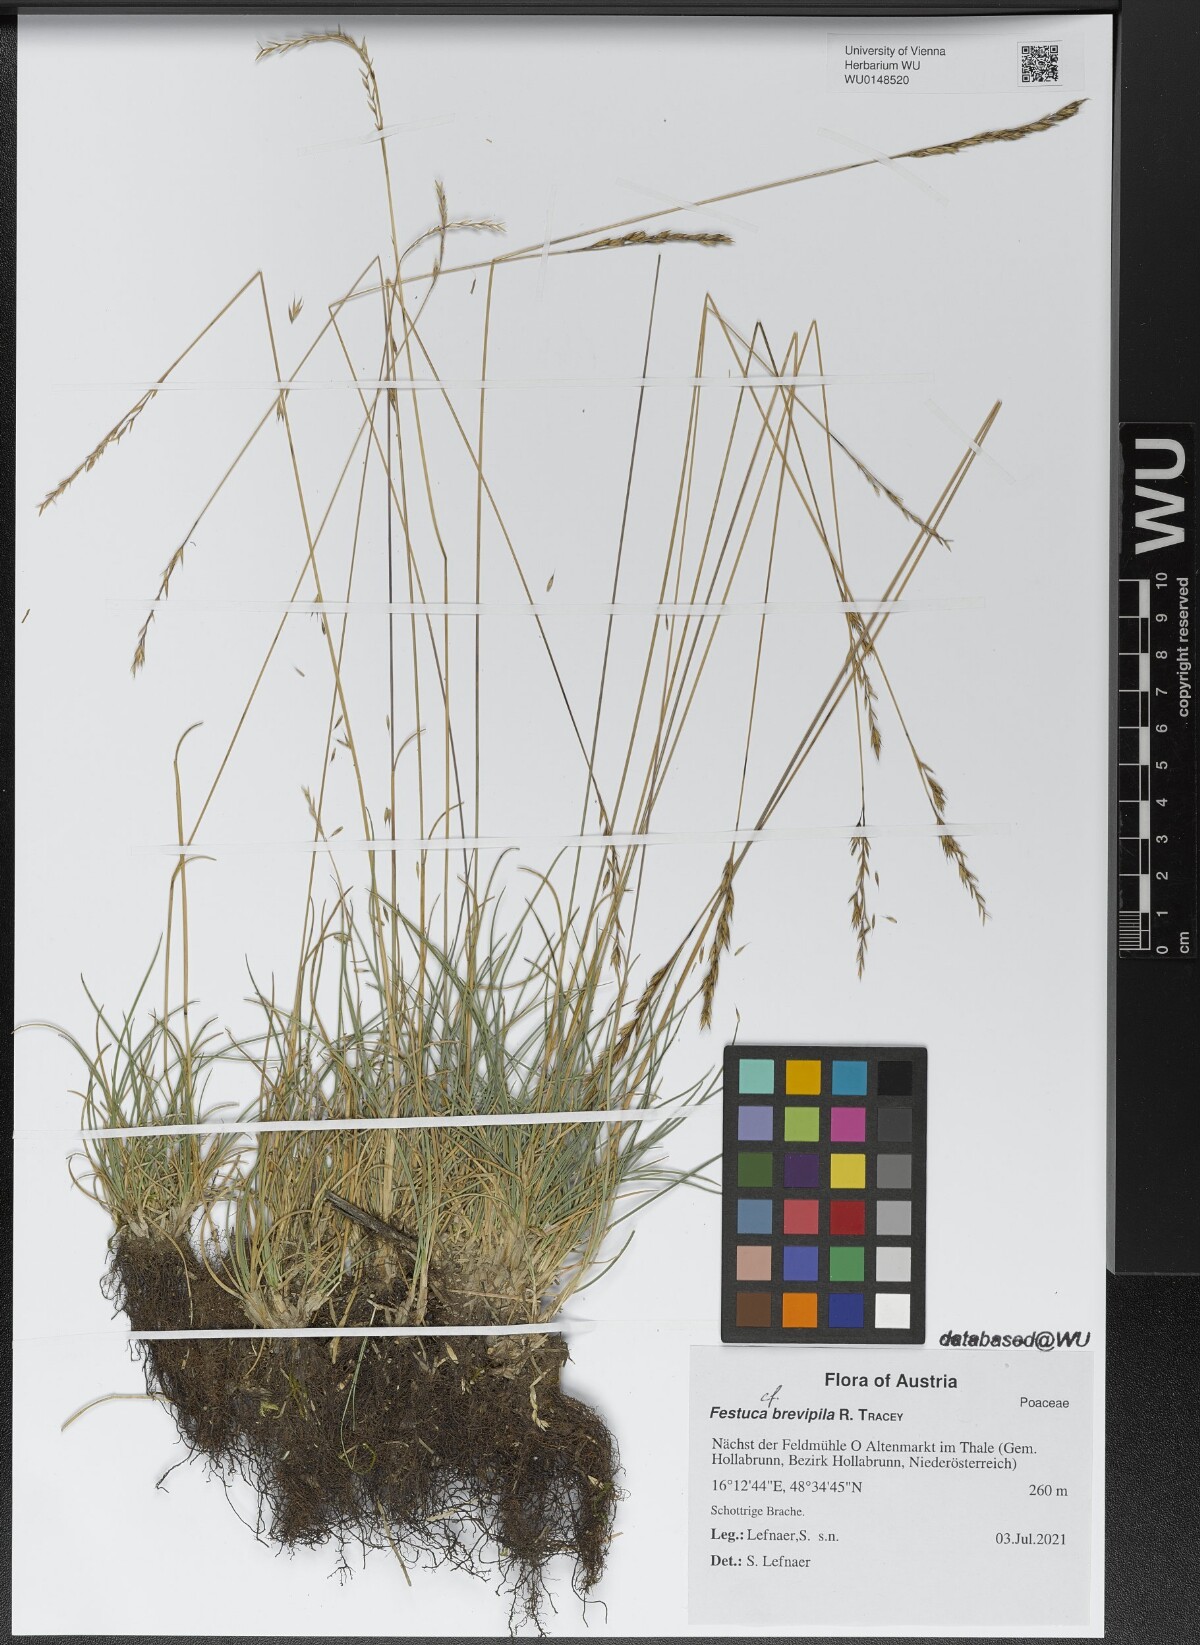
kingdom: Plantae
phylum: Tracheophyta
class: Liliopsida
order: Poales
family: Poaceae
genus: Festuca
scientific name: Festuca trachyphylla
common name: Hard fescue
